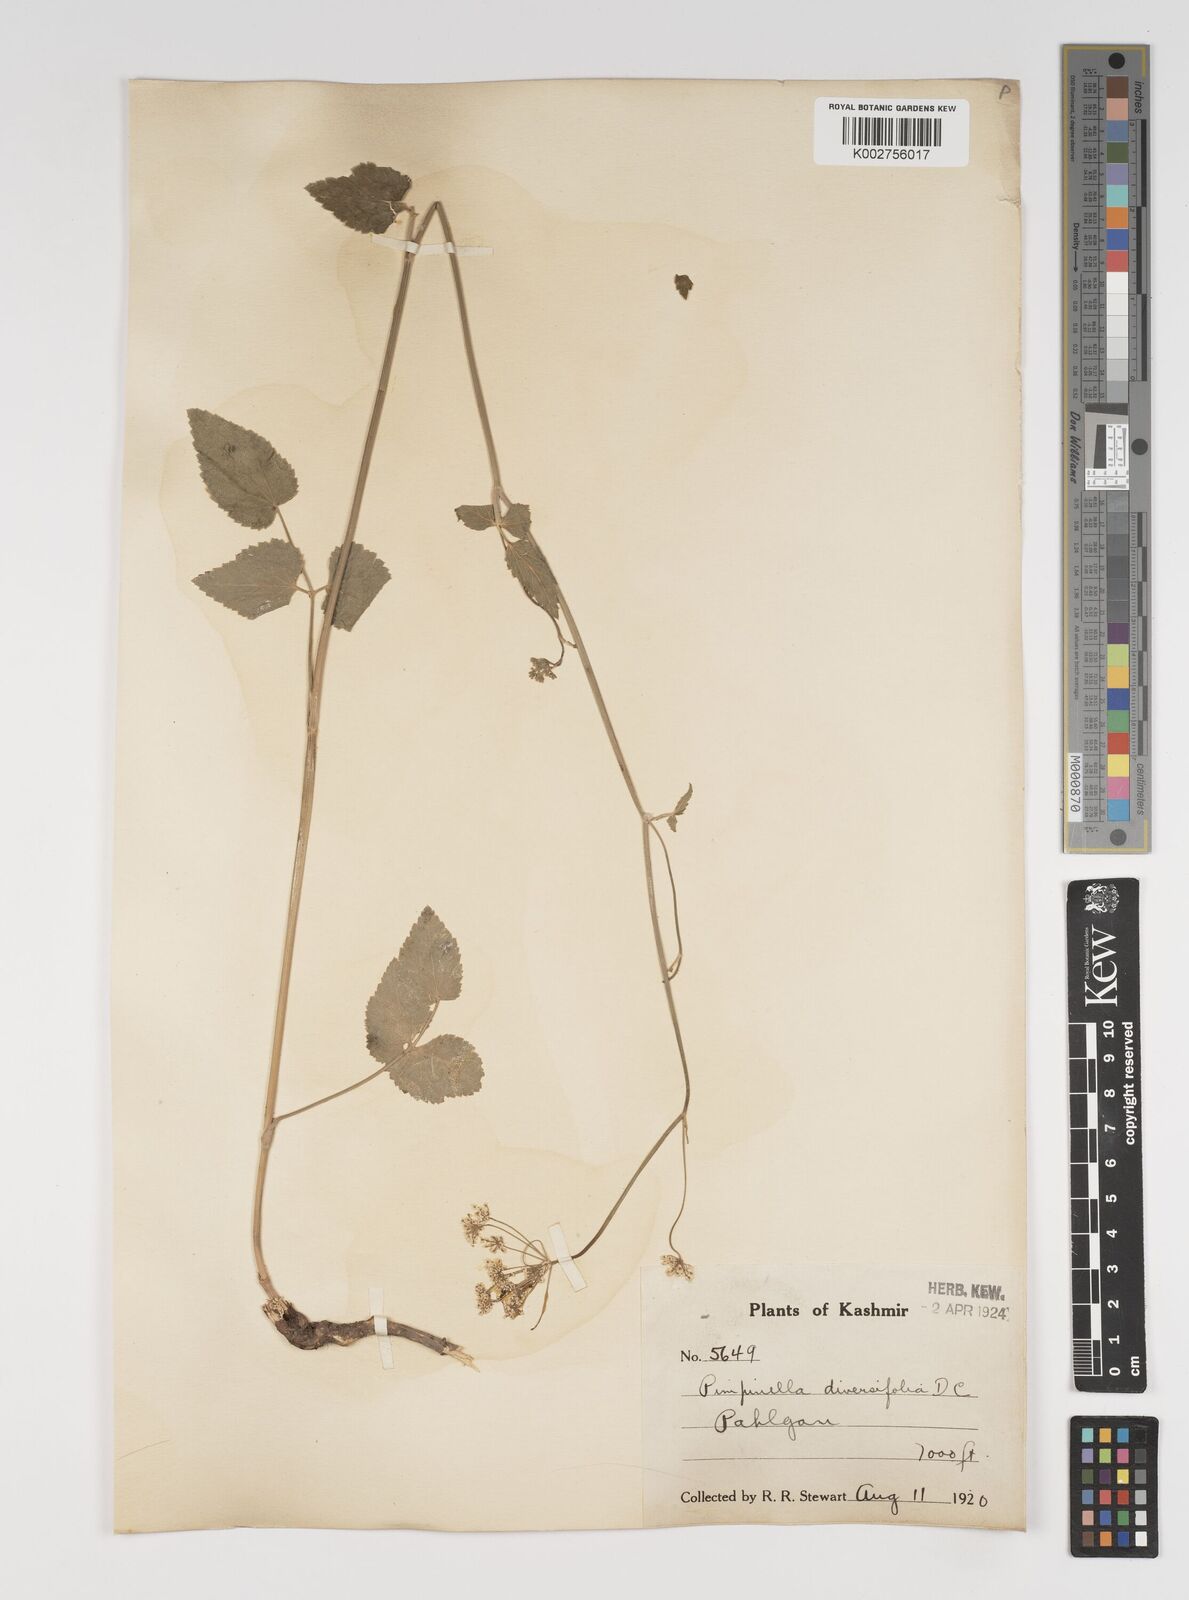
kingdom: Plantae
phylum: Tracheophyta
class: Magnoliopsida
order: Apiales
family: Apiaceae
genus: Pimpinella
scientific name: Pimpinella diversifolia
